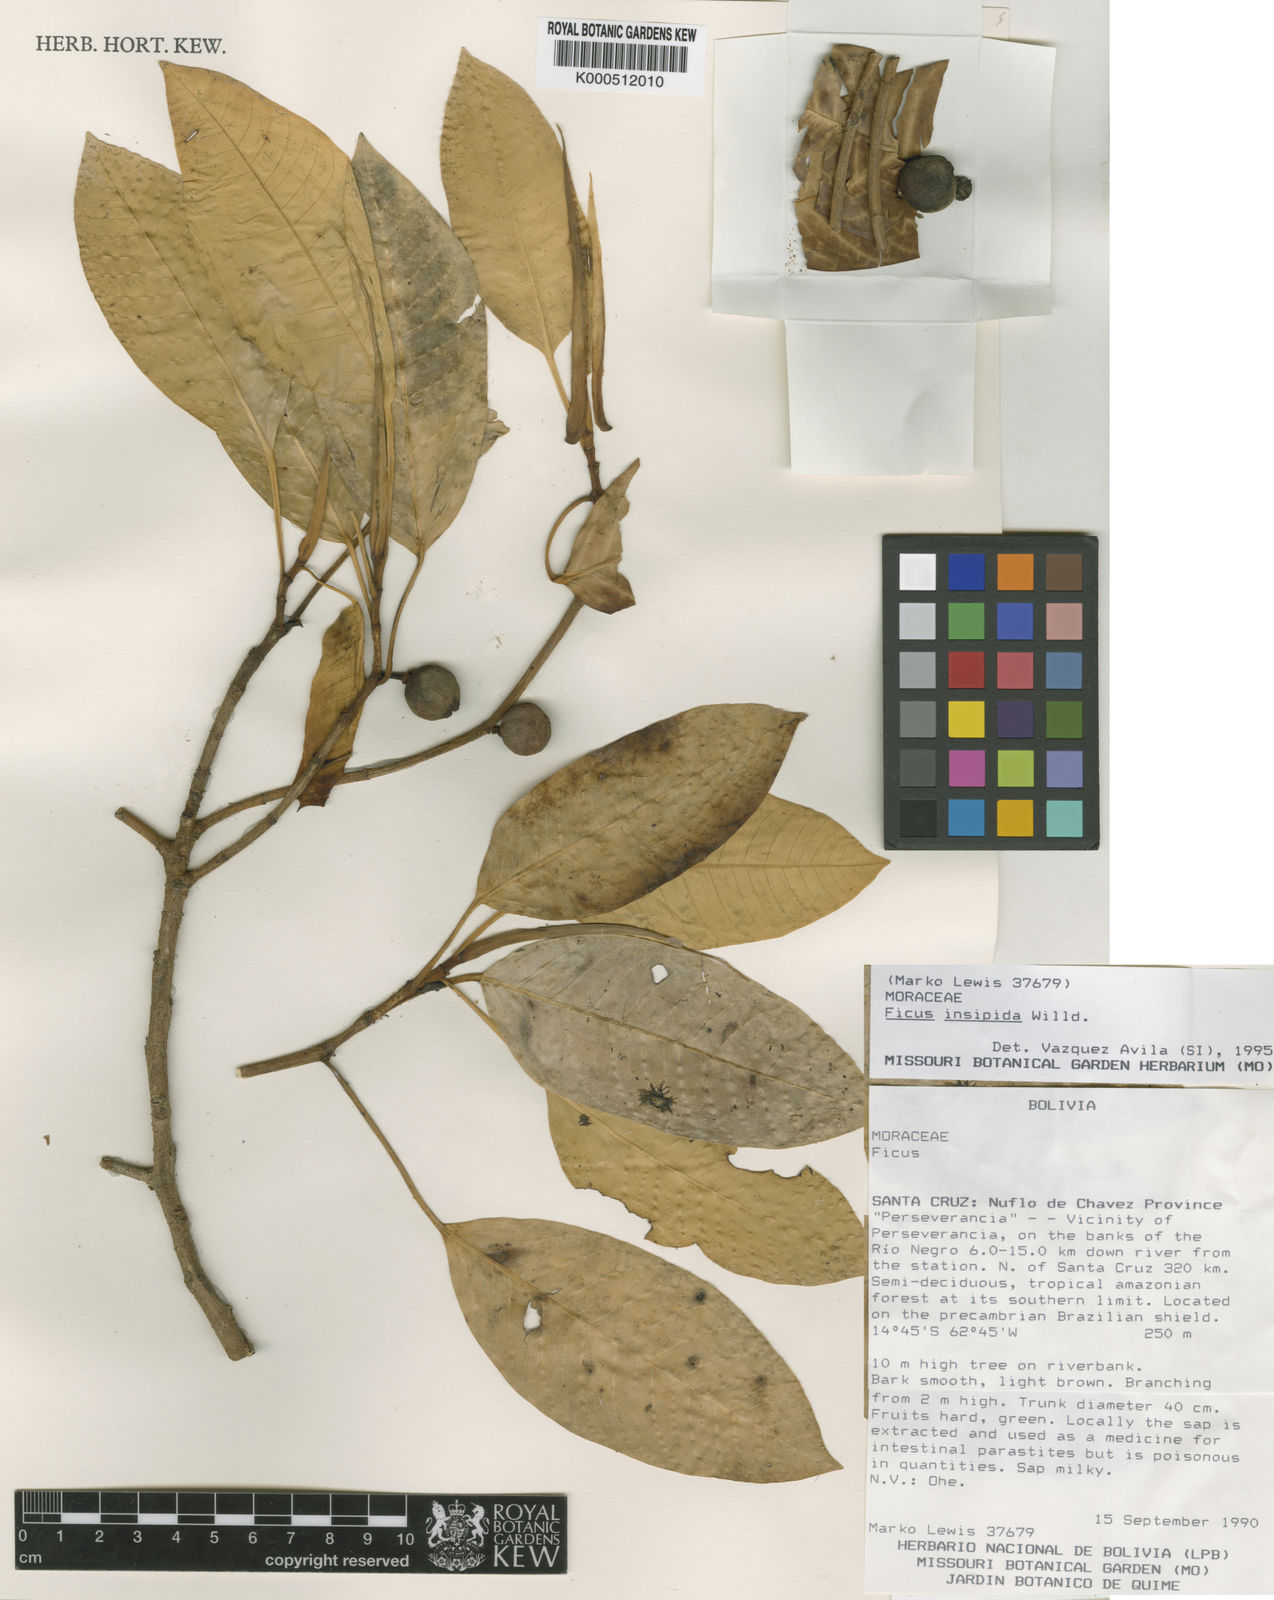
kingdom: Plantae
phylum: Tracheophyta
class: Magnoliopsida
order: Rosales
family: Moraceae
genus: Ficus
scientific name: Ficus insipida
